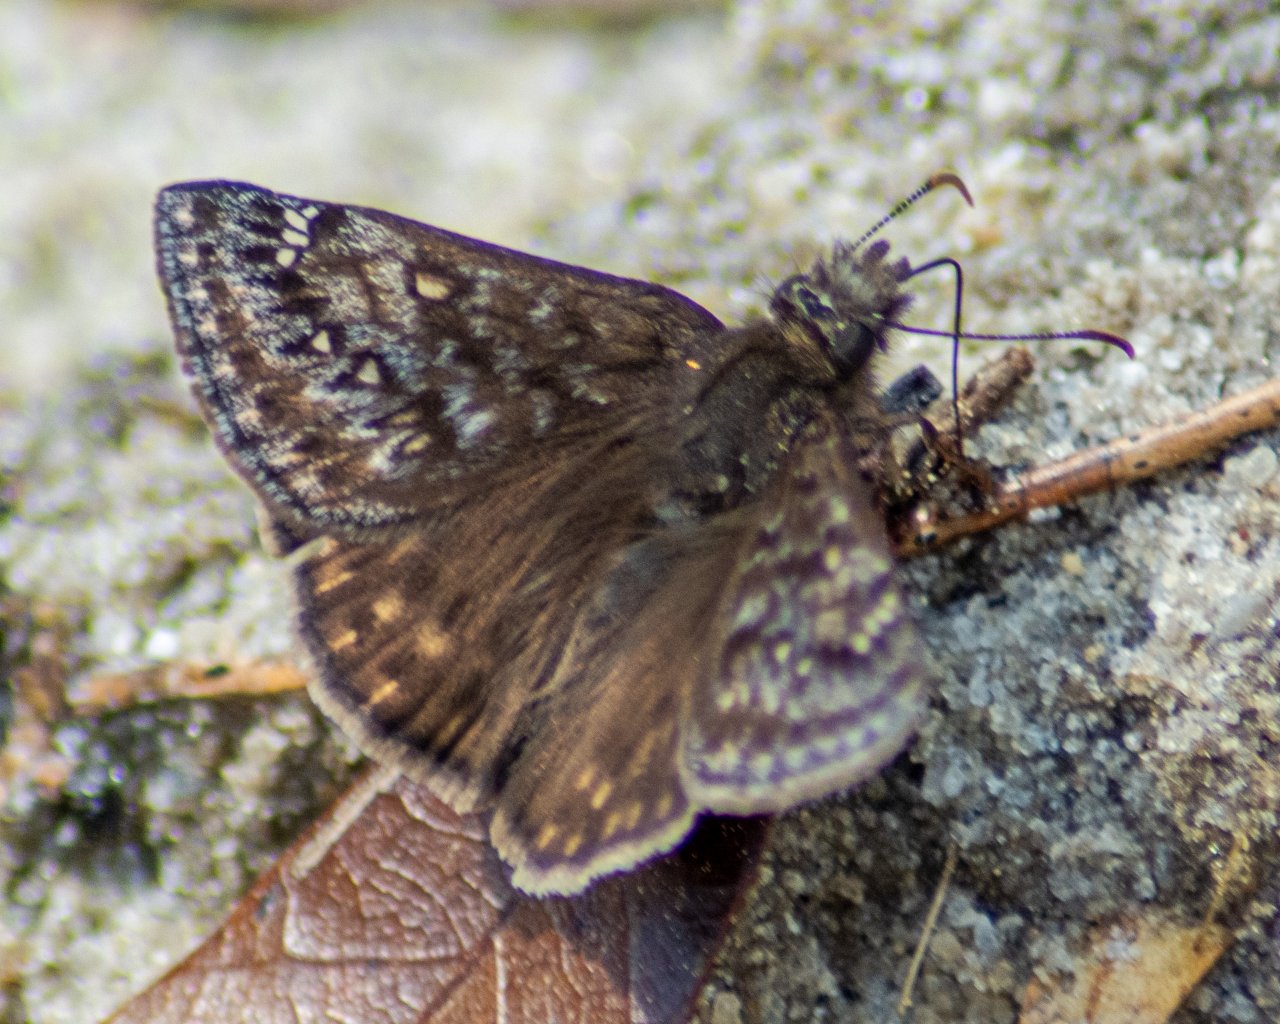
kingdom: Animalia
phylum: Arthropoda
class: Insecta
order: Lepidoptera
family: Hesperiidae
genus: Gesta
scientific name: Gesta
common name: Juvenal's Duskywing
